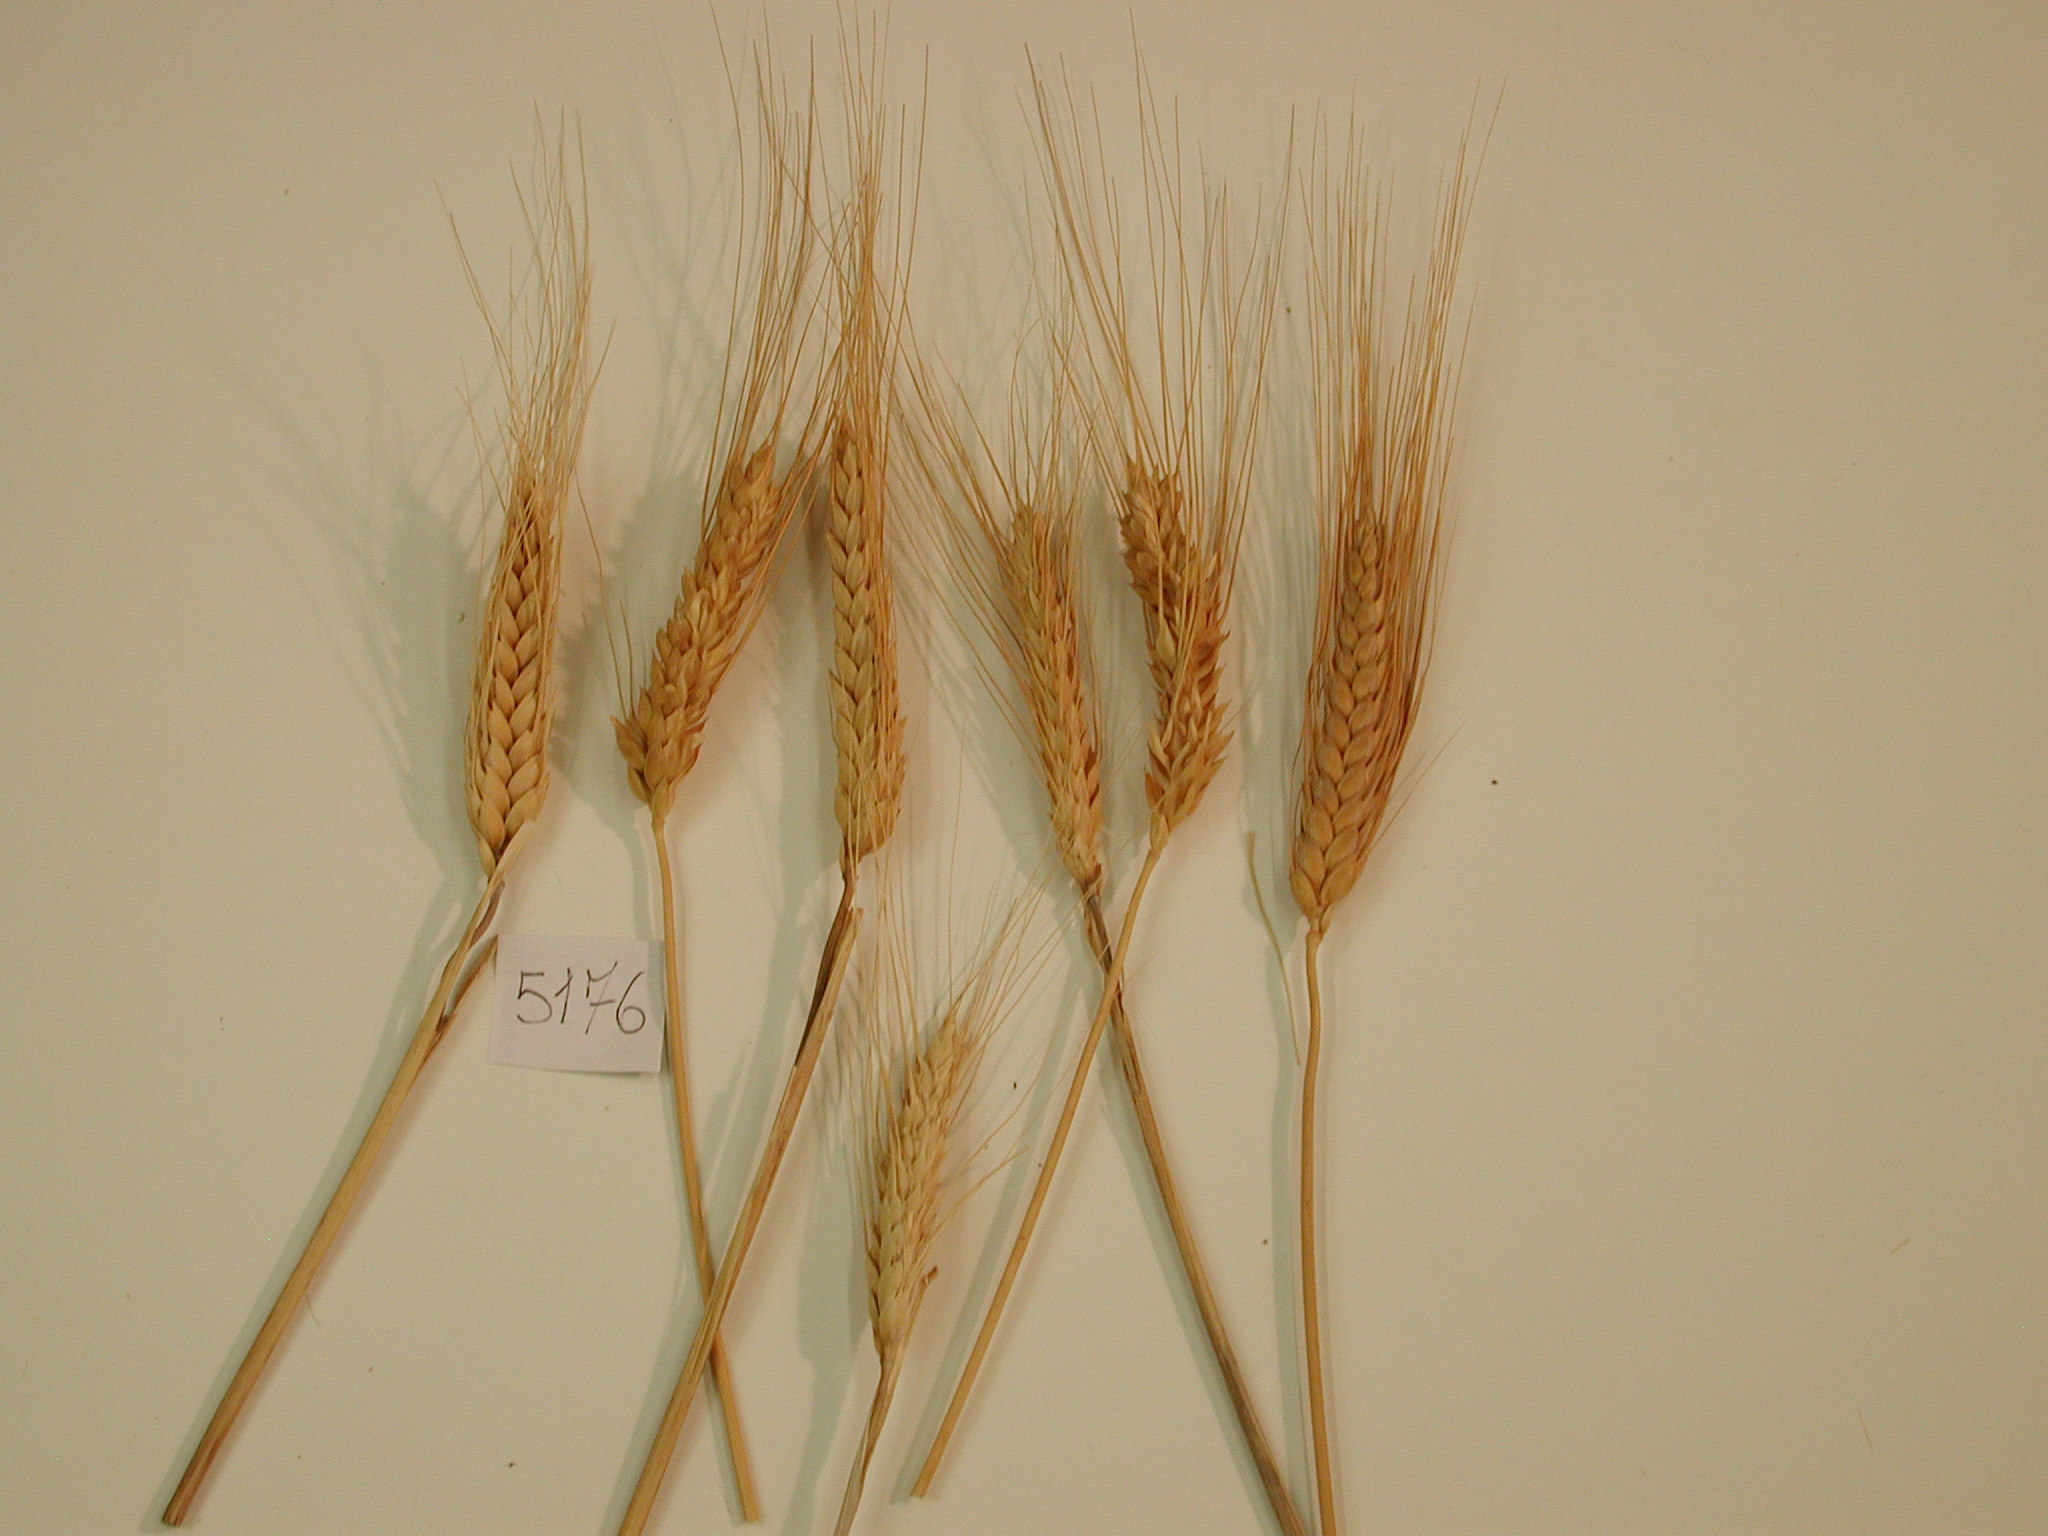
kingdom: Plantae
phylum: Tracheophyta
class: Liliopsida
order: Poales
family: Poaceae
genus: Triticum
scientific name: Triticum turgidum
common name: Wheat
